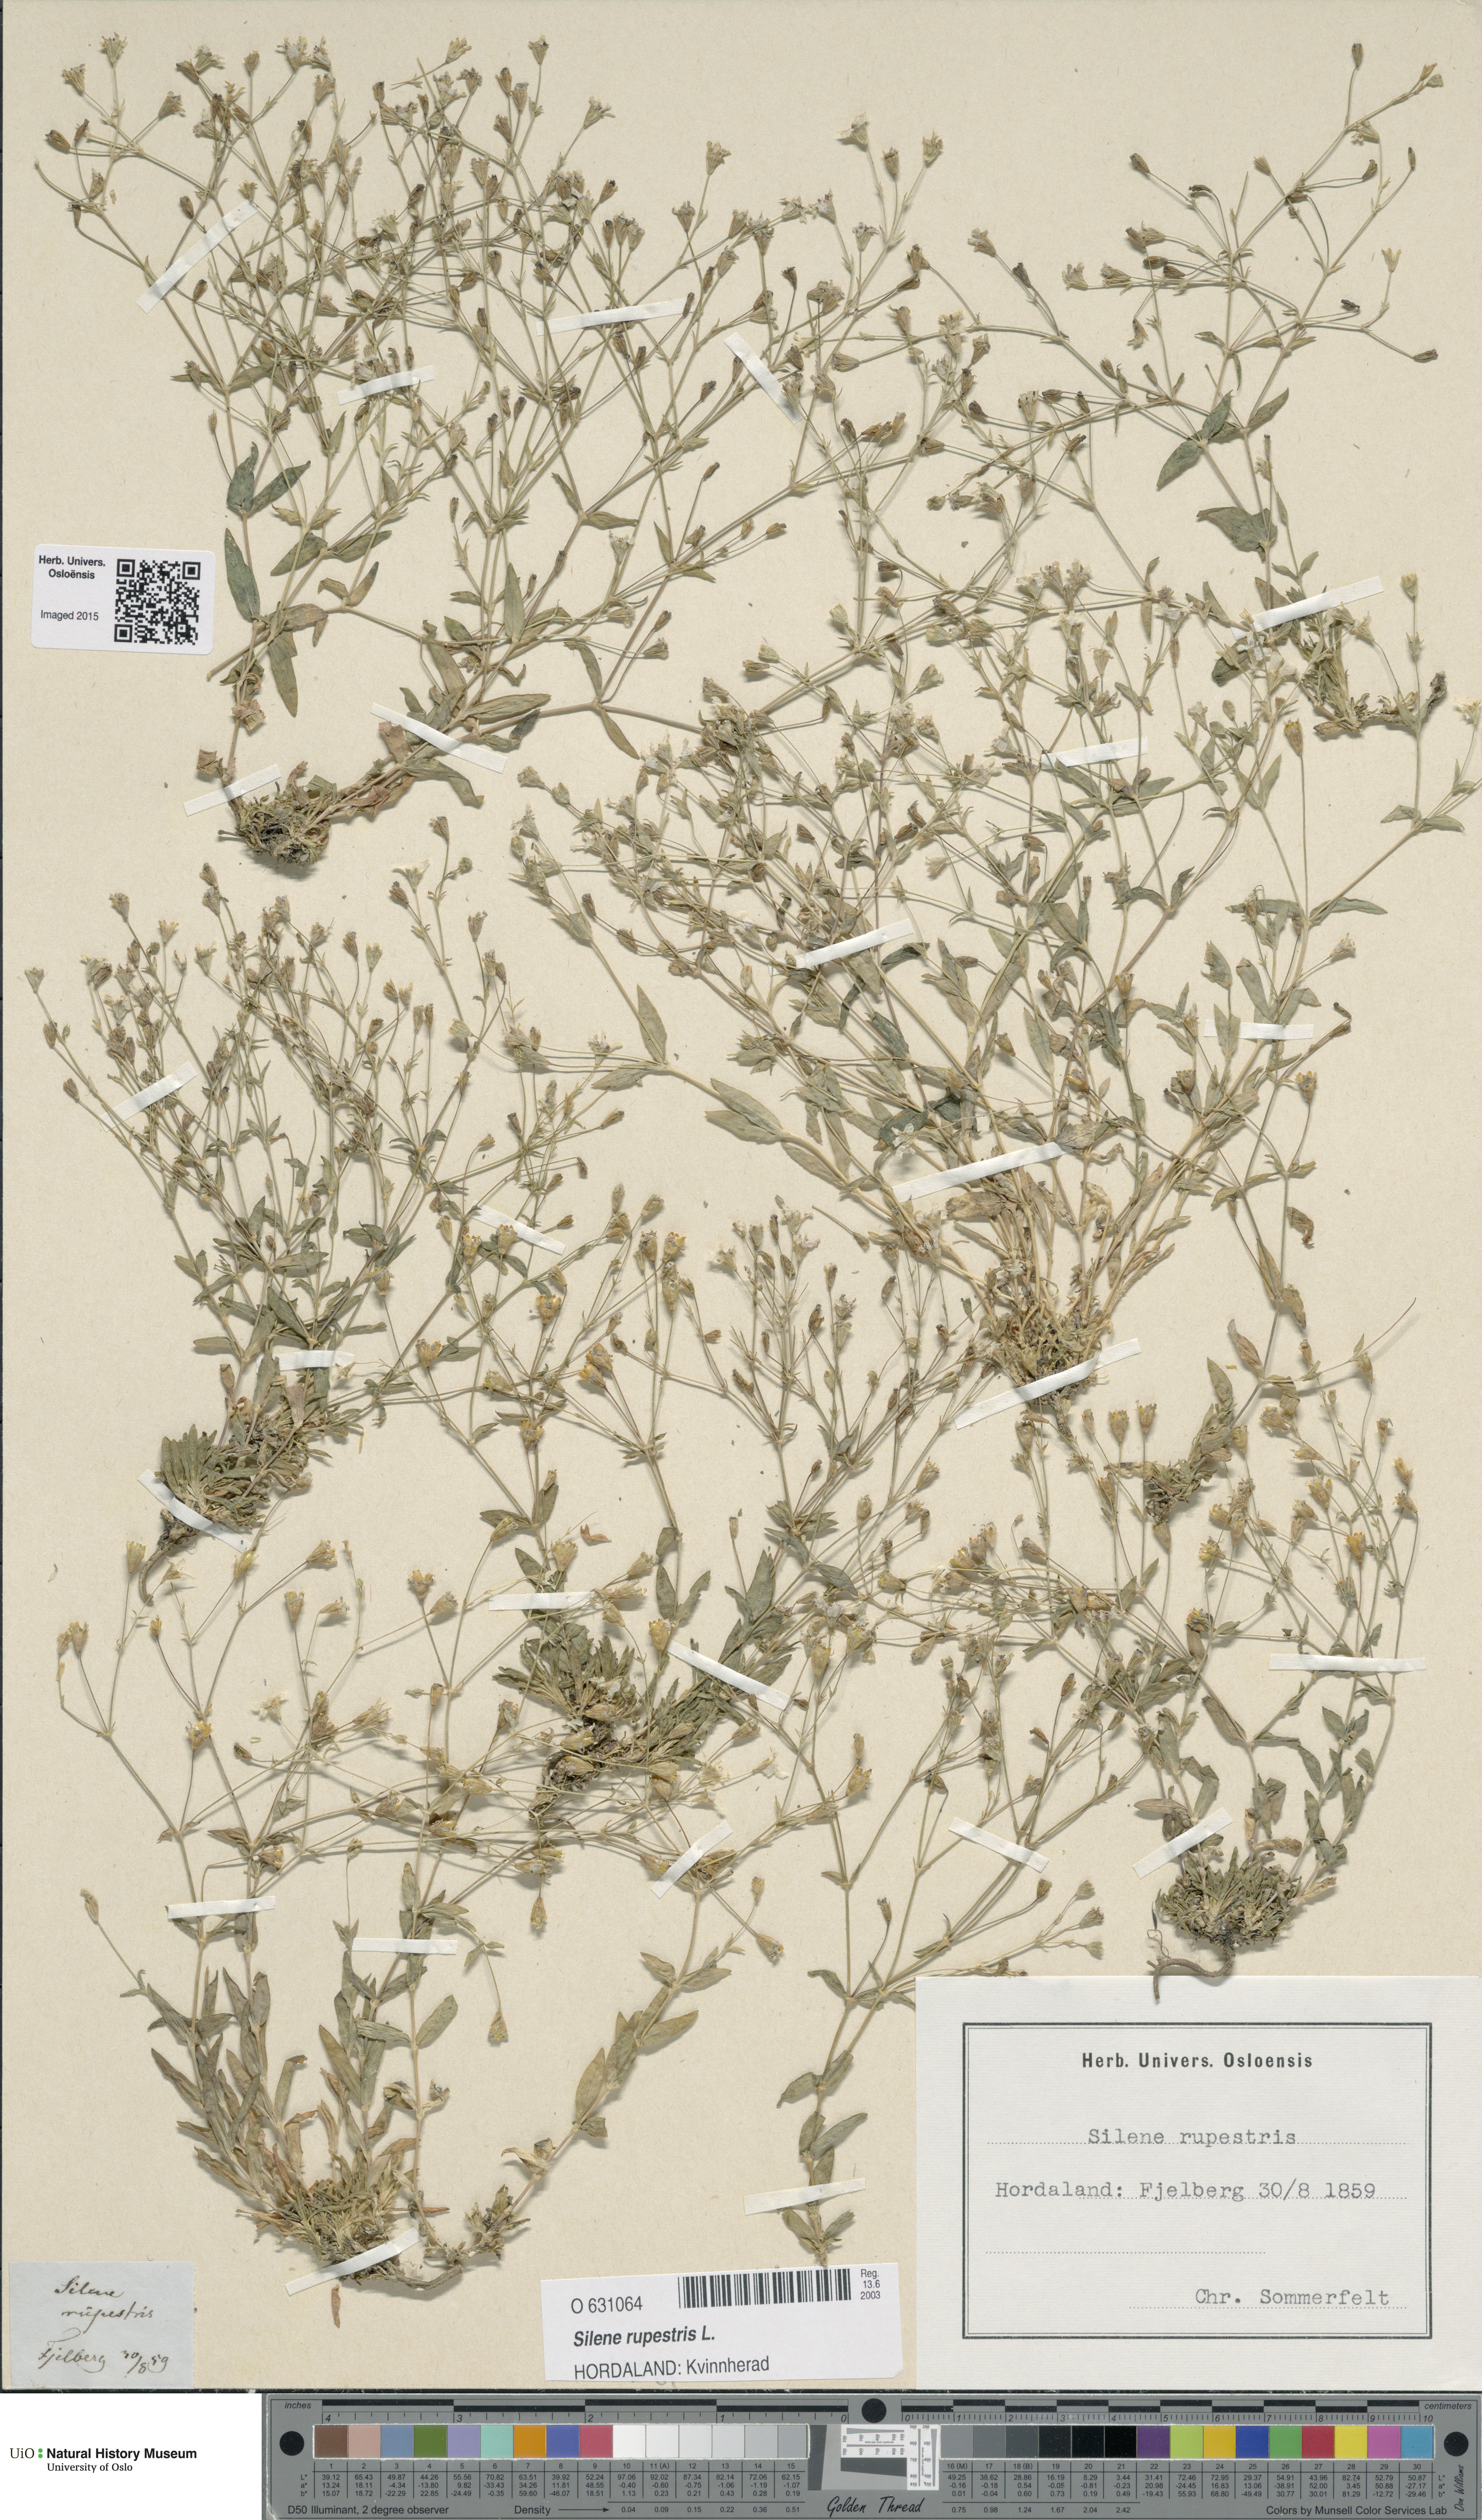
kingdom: Plantae
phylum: Tracheophyta
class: Magnoliopsida
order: Caryophyllales
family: Caryophyllaceae
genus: Atocion
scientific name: Atocion rupestre
